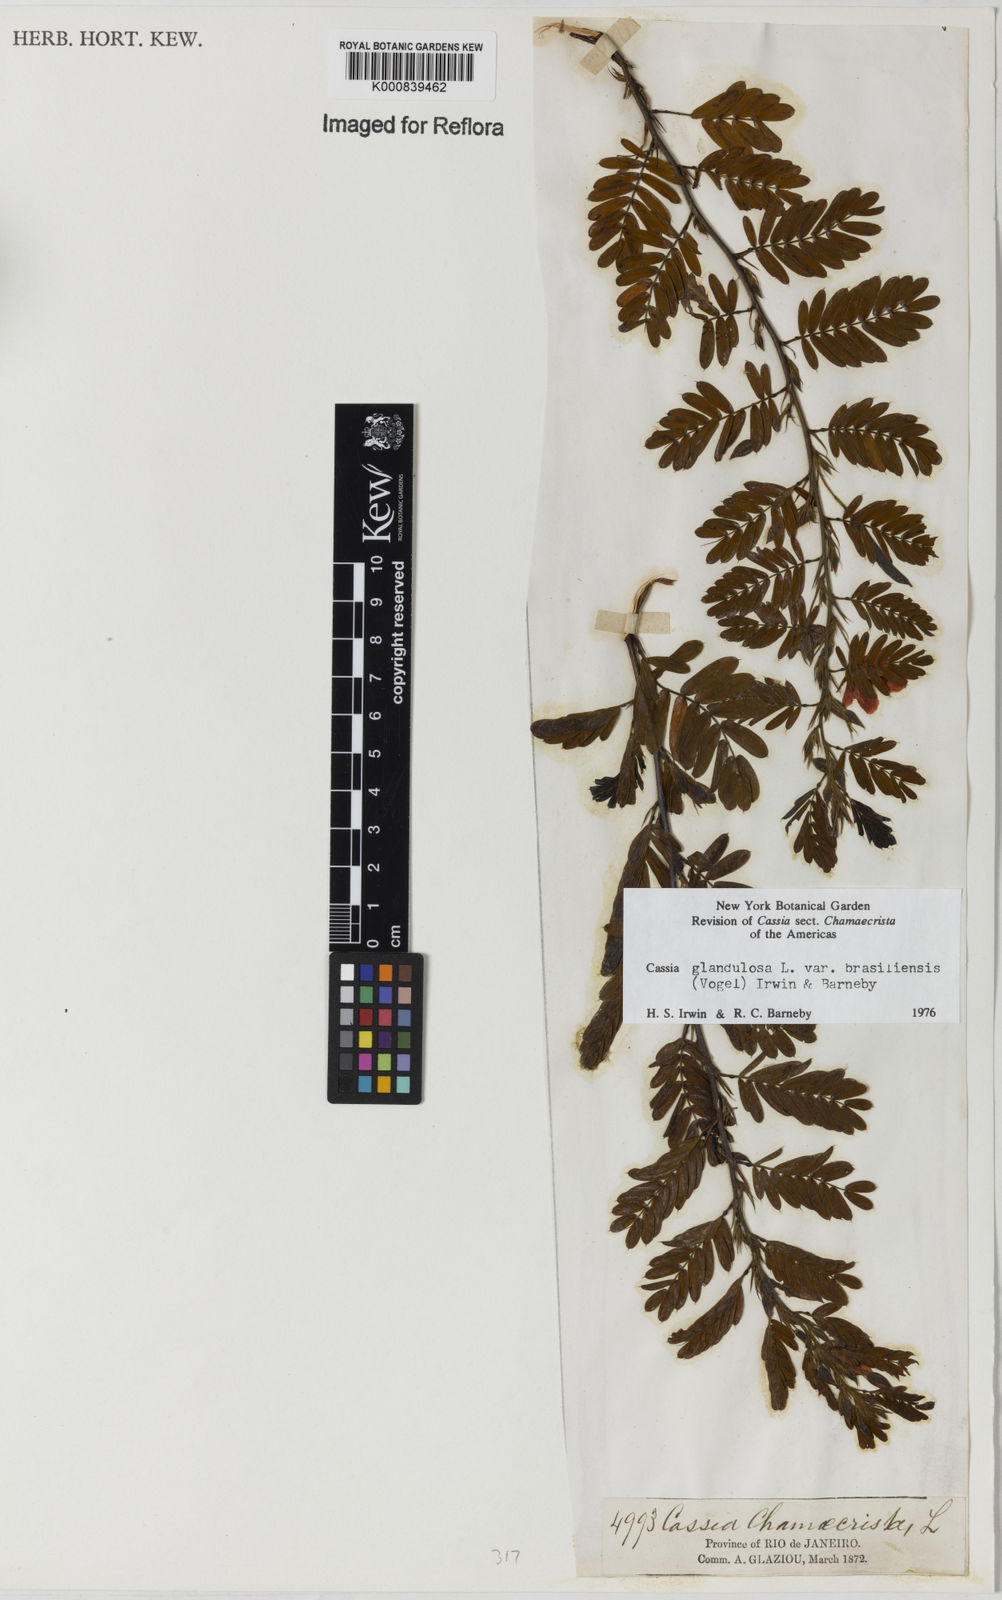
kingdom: Plantae
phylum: Tracheophyta
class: Magnoliopsida
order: Fabales
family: Fabaceae
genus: Chamaecrista
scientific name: Chamaecrista glandulosa
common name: Wild peas
